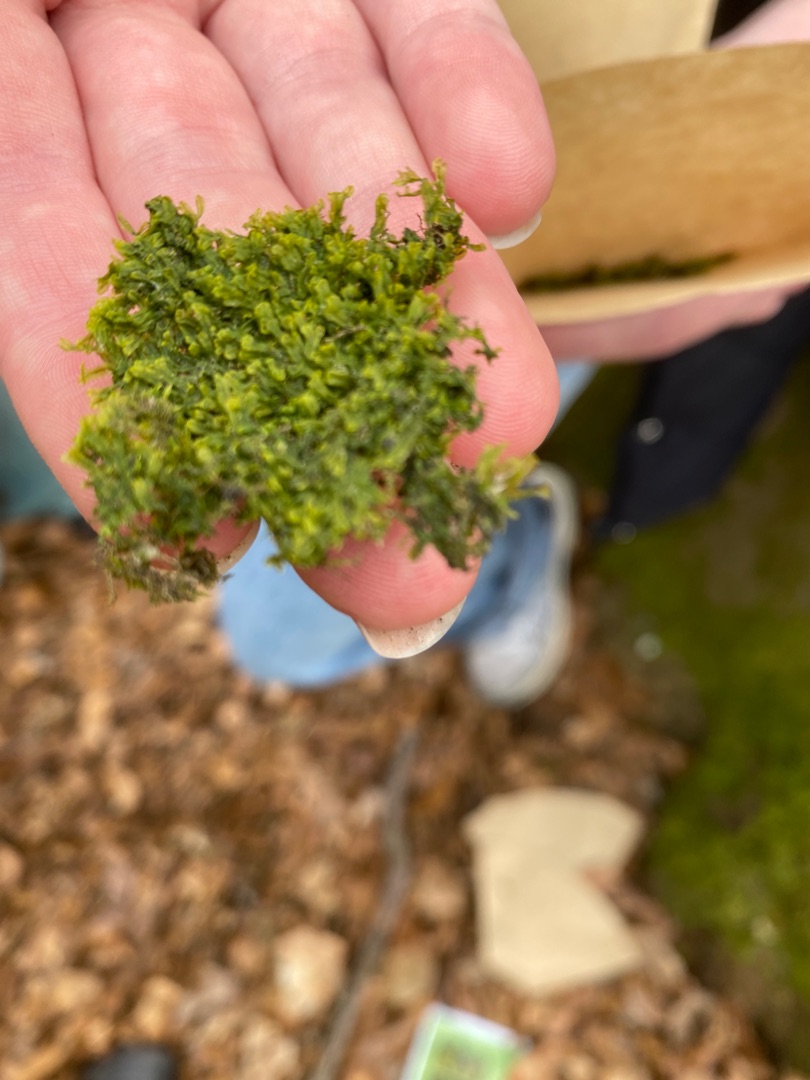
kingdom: Plantae
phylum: Marchantiophyta
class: Jungermanniopsida
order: Metzgeriales
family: Metzgeriaceae
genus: Metzgeria
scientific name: Metzgeria furcata
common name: Almindelig gaffelløv
